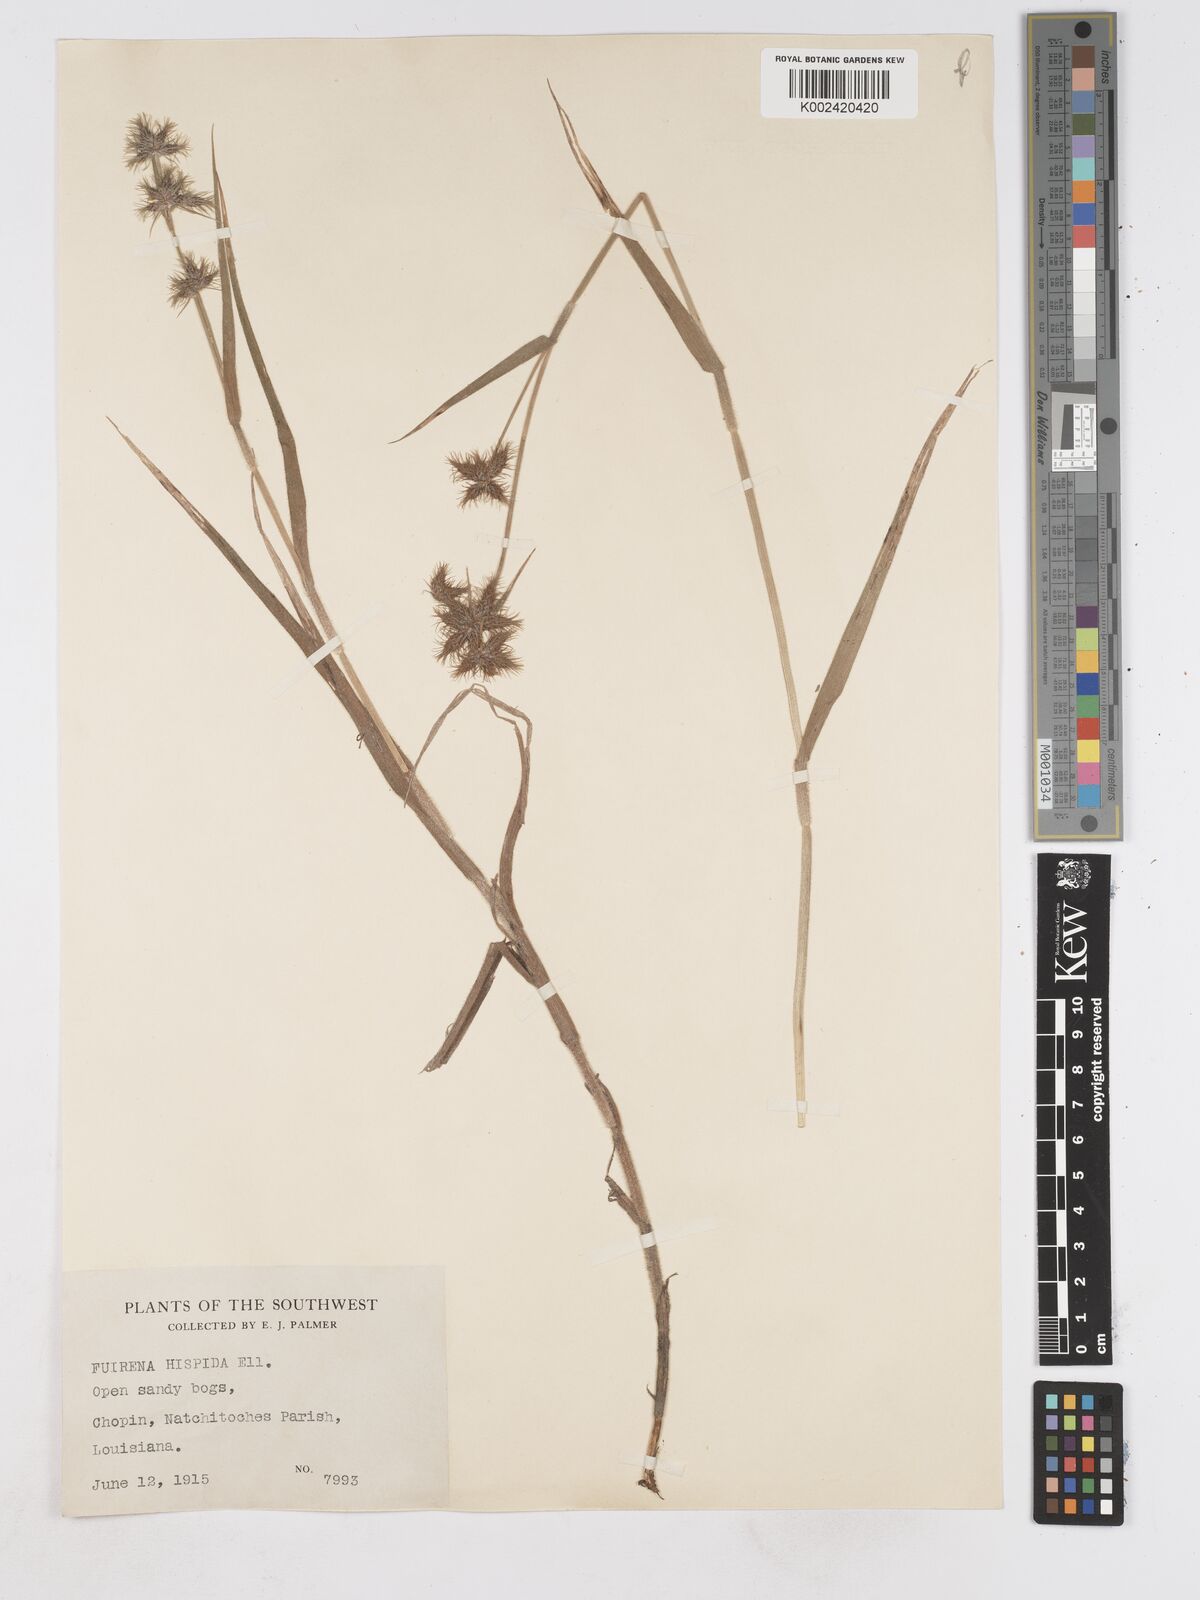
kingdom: Plantae
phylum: Tracheophyta
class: Liliopsida
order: Poales
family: Cyperaceae
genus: Fuirena
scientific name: Fuirena squarrosa
